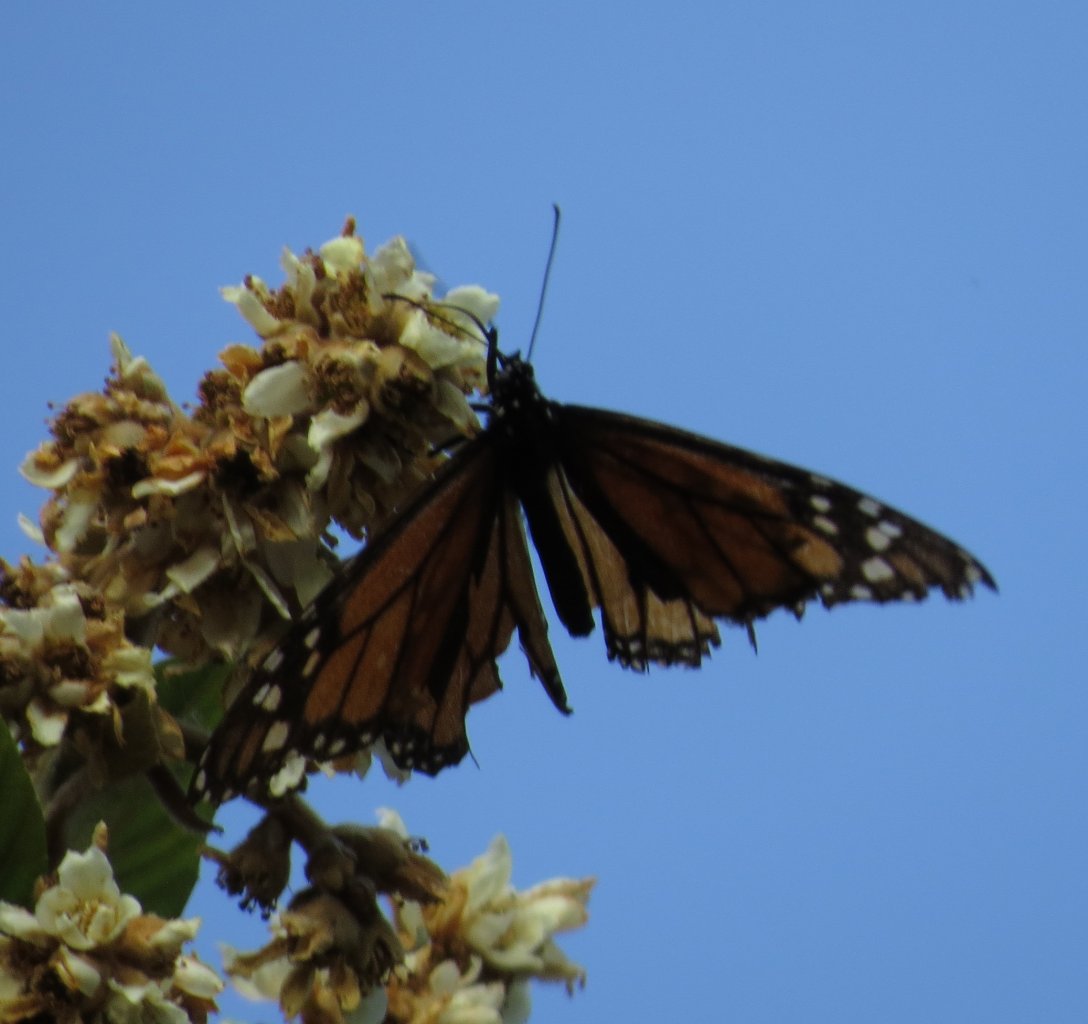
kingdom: Animalia
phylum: Arthropoda
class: Insecta
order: Lepidoptera
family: Nymphalidae
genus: Danaus
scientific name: Danaus plexippus
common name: Monarch
